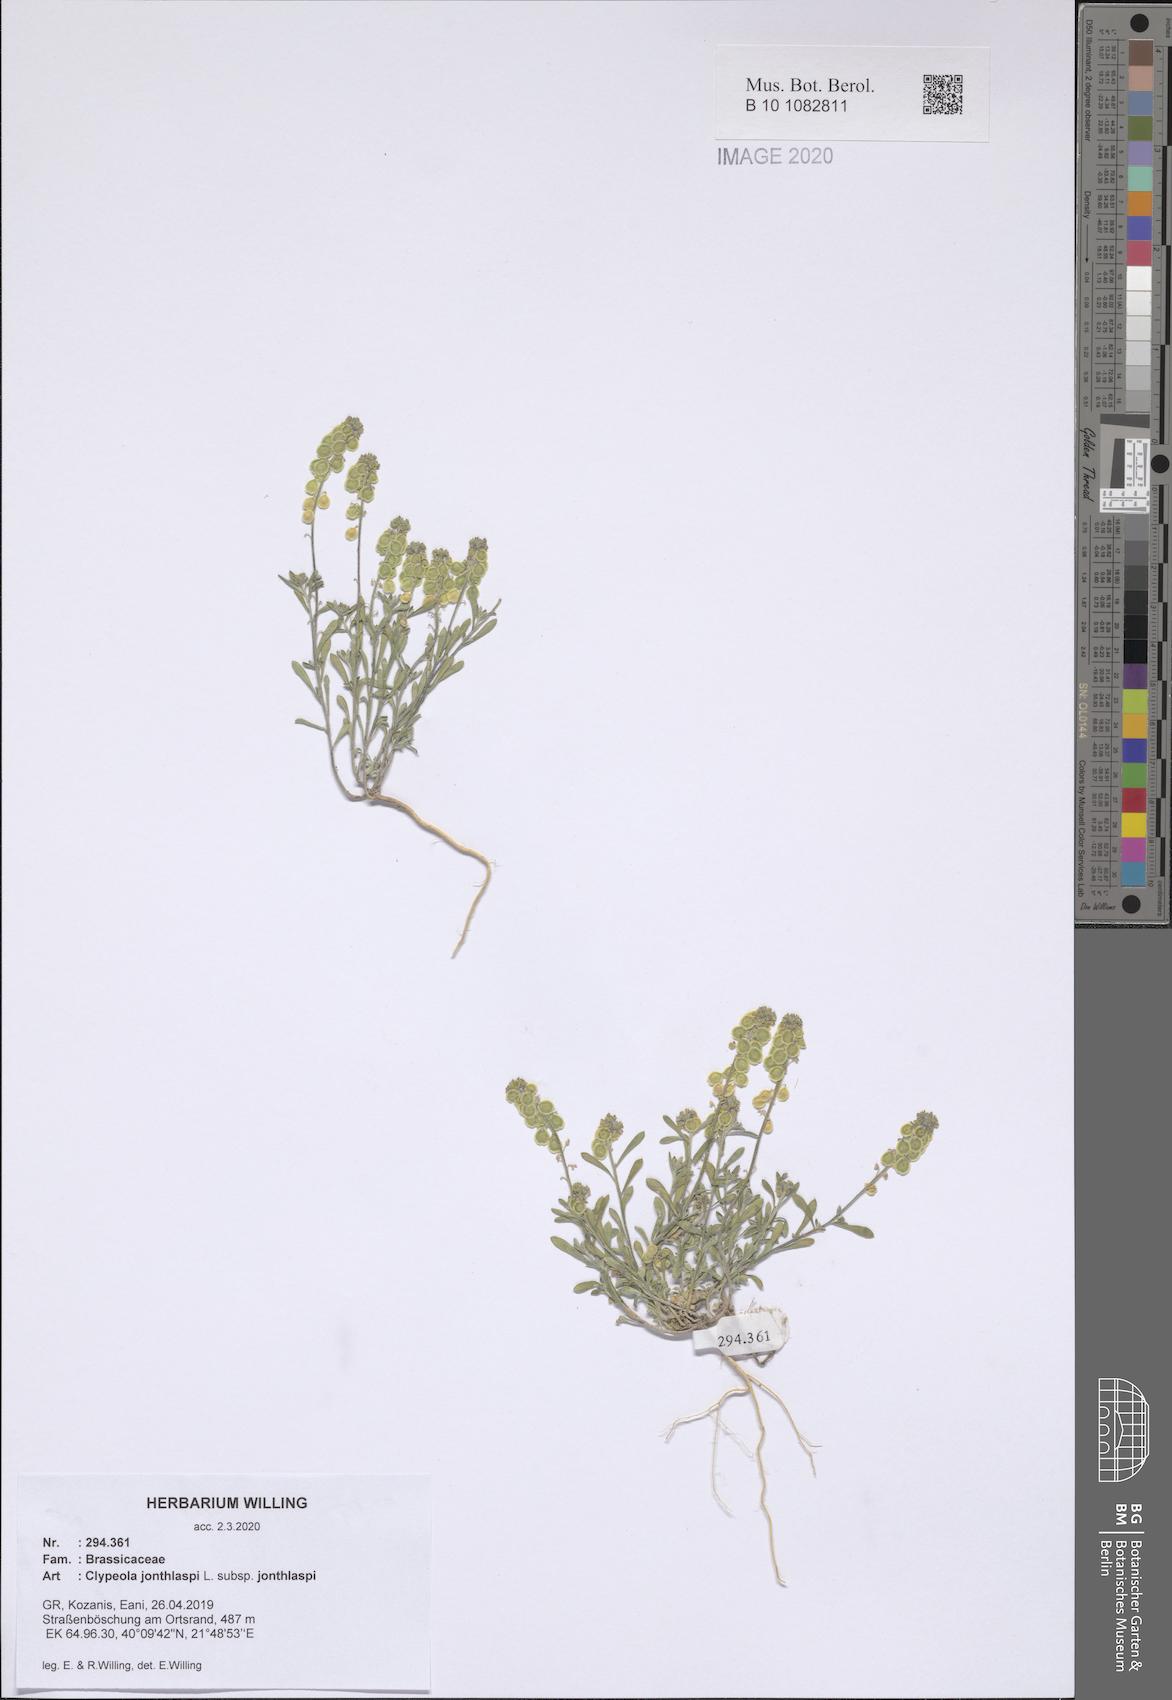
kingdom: Plantae
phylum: Tracheophyta
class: Magnoliopsida
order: Brassicales
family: Brassicaceae
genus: Clypeola
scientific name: Clypeola jonthlaspi
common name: Disk cress
